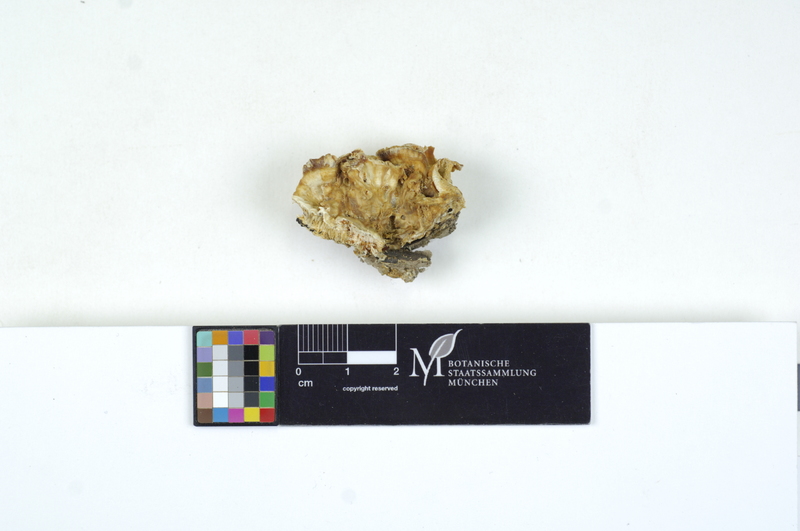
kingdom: Plantae
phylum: Tracheophyta
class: Magnoliopsida
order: Fagales
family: Fagaceae
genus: Fagus
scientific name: Fagus sylvatica
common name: Beech
